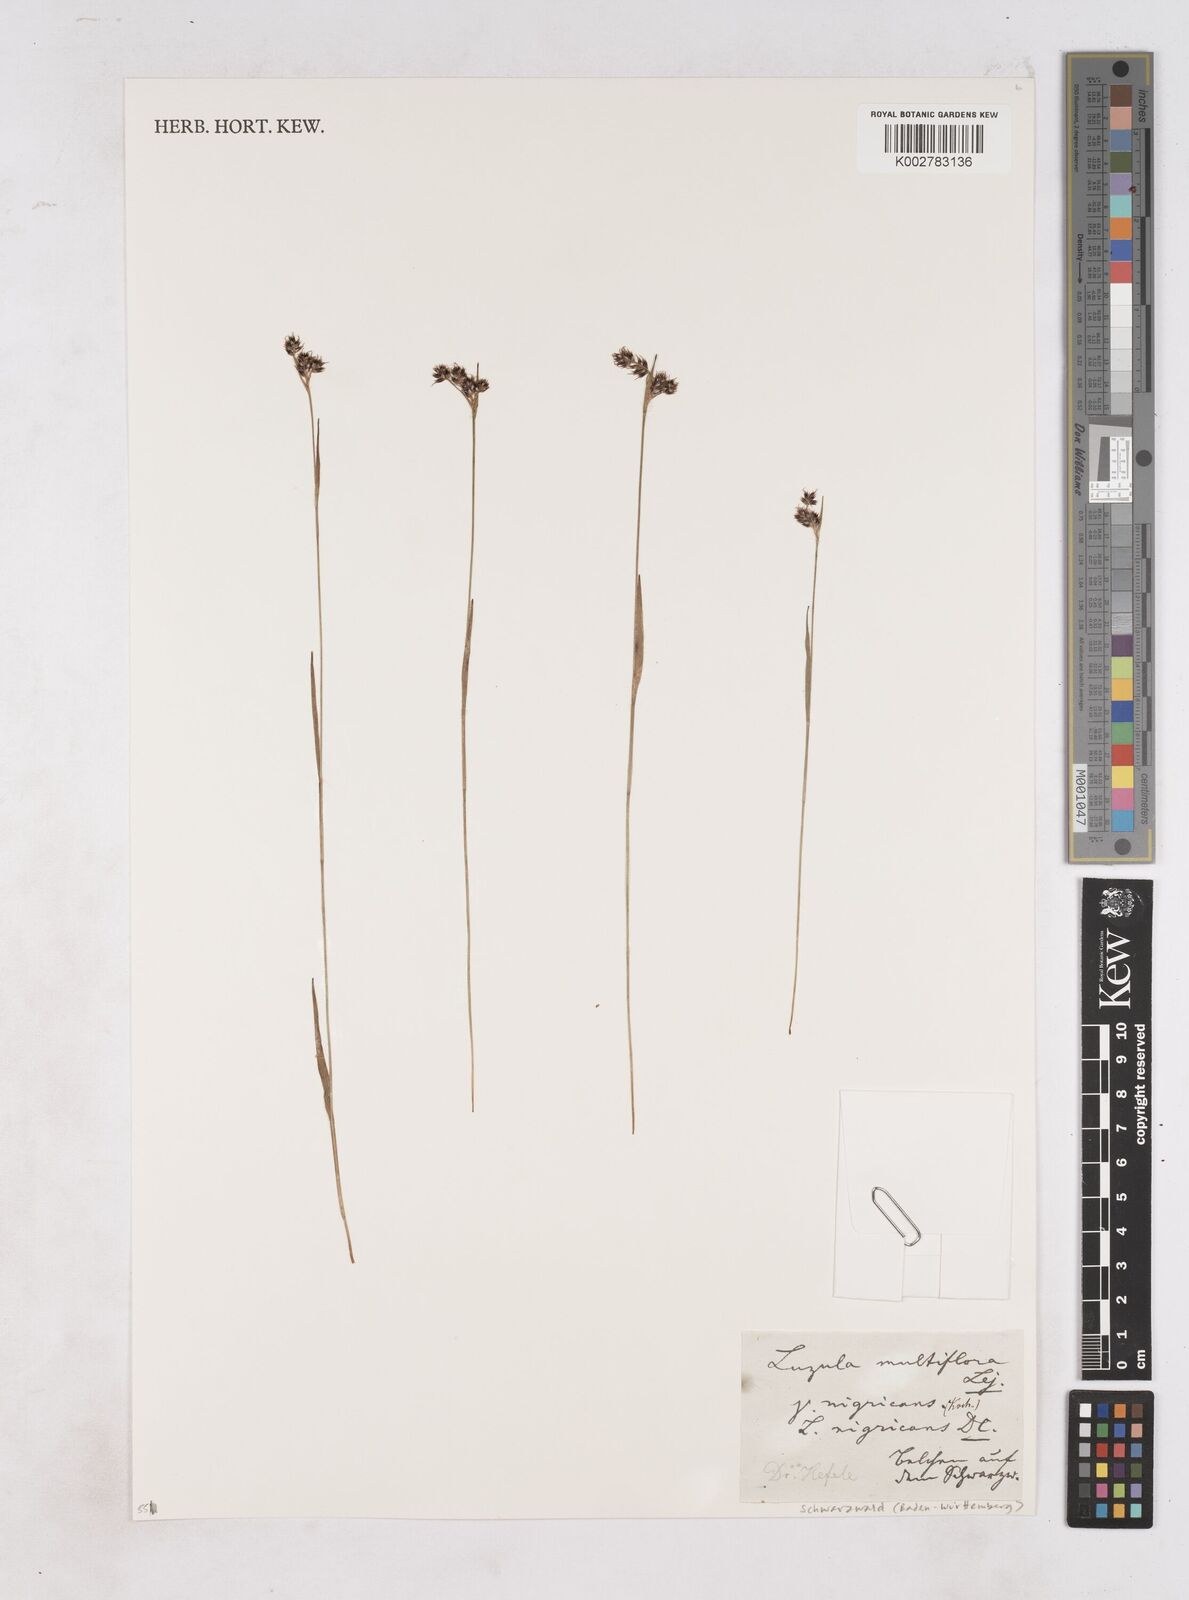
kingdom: Plantae
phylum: Tracheophyta
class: Liliopsida
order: Poales
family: Juncaceae
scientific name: Juncaceae
